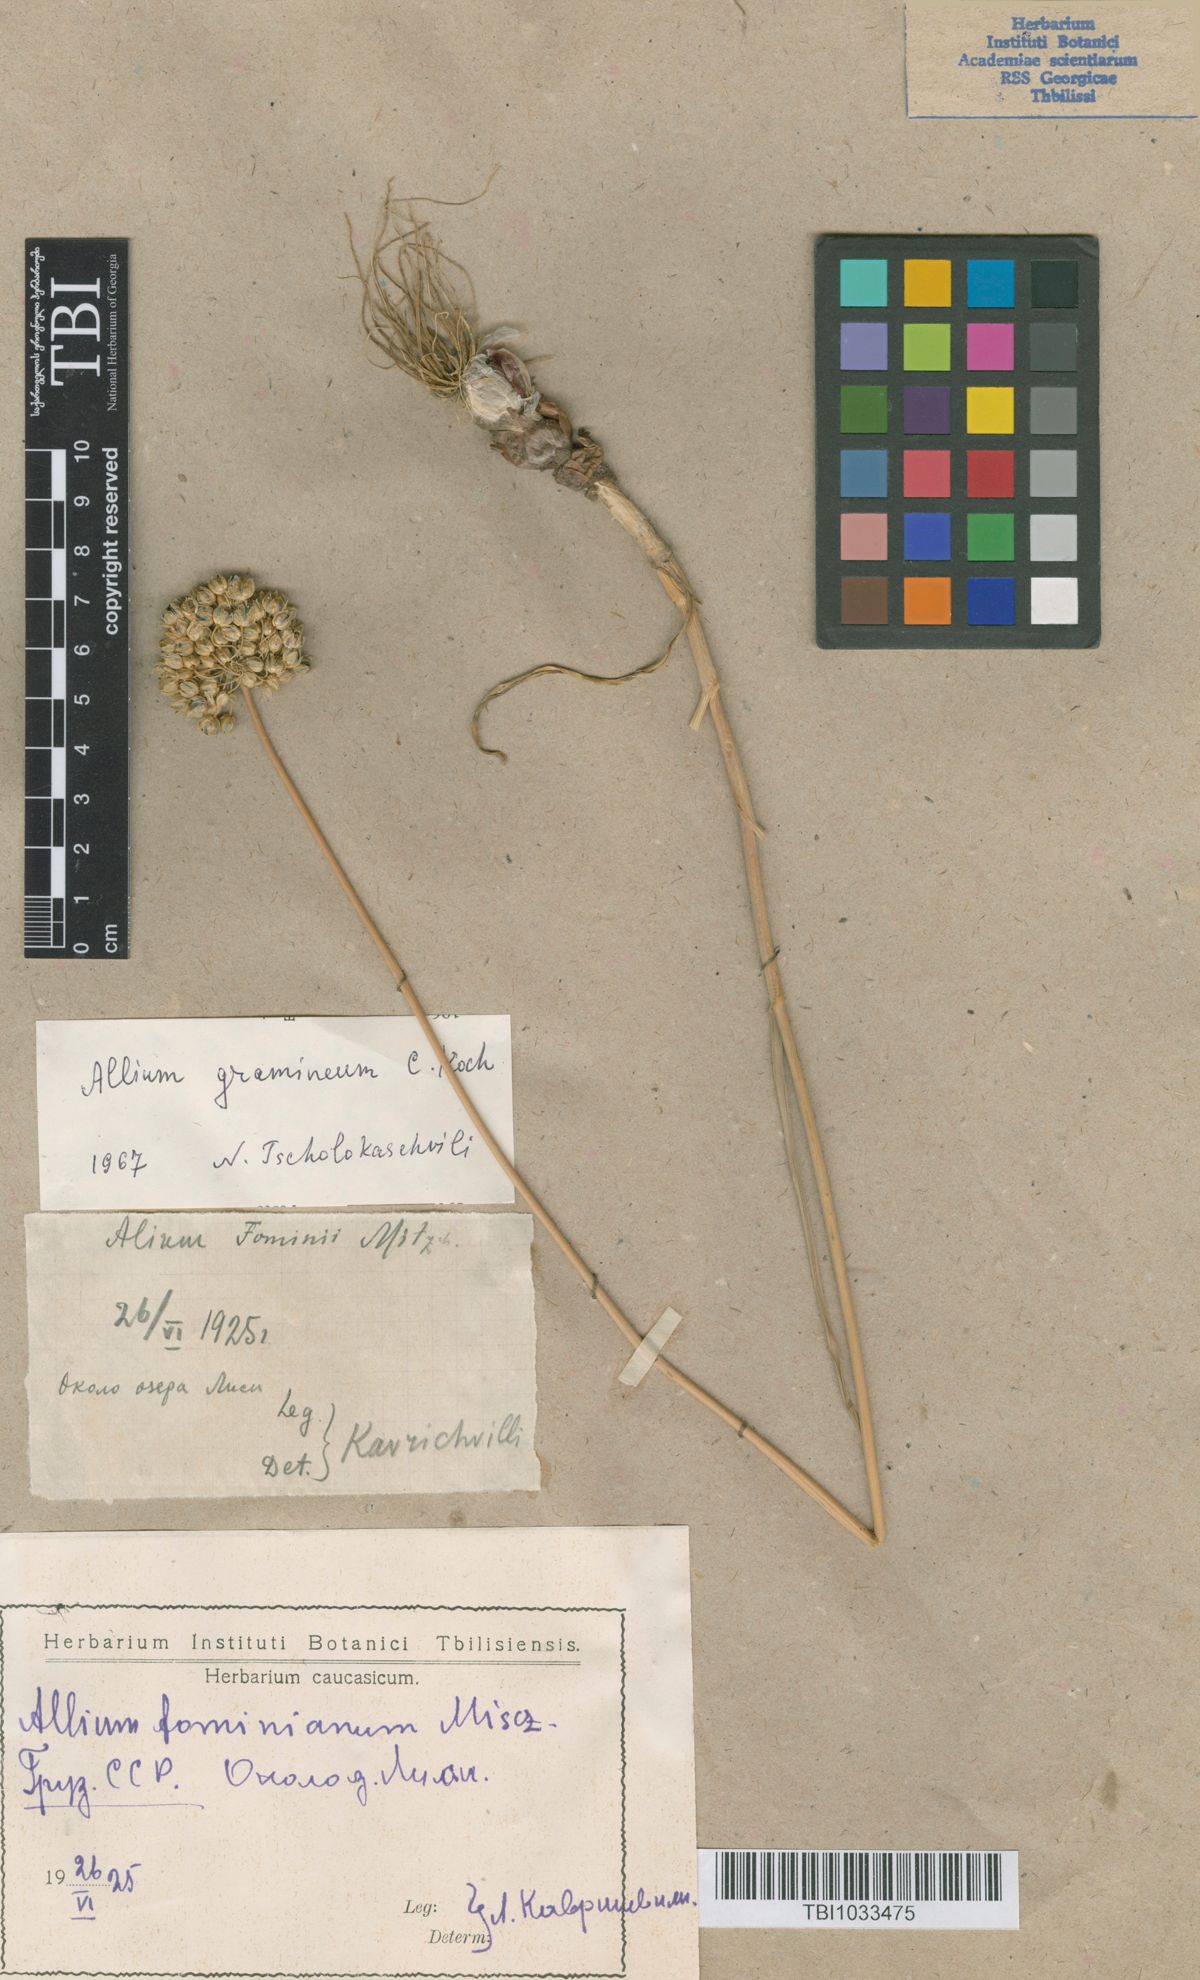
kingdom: Plantae
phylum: Tracheophyta
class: Liliopsida
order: Asparagales
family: Amaryllidaceae
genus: Allium
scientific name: Allium gramineum
